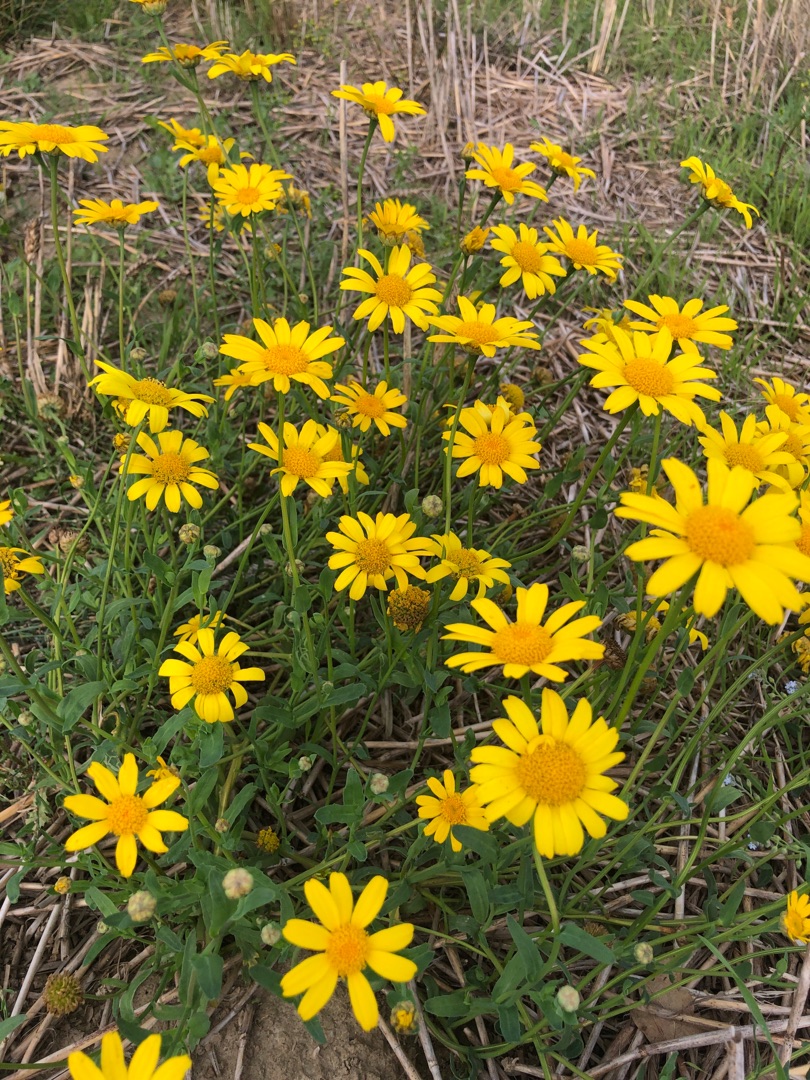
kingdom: Plantae
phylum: Tracheophyta
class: Magnoliopsida
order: Asterales
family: Asteraceae
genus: Glebionis
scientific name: Glebionis segetum
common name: Gul okseøje
